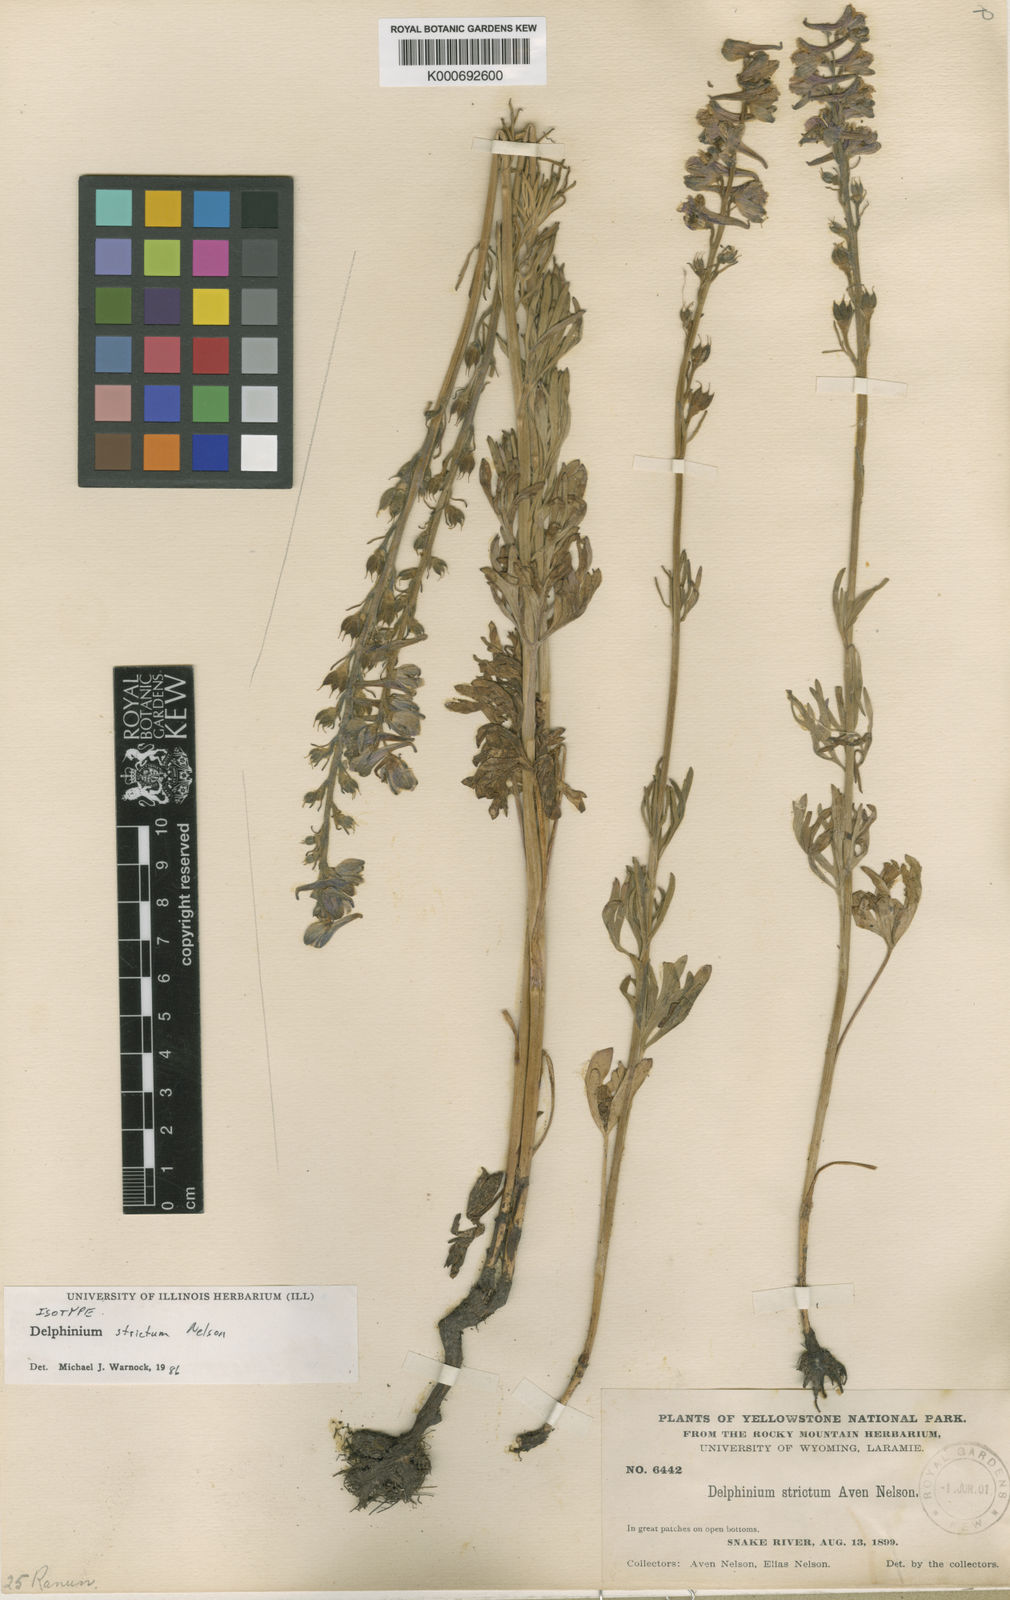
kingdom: Plantae
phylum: Tracheophyta
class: Magnoliopsida
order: Ranunculales
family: Ranunculaceae
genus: Delphinium
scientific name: Delphinium distichum
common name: Meadow larkspur
